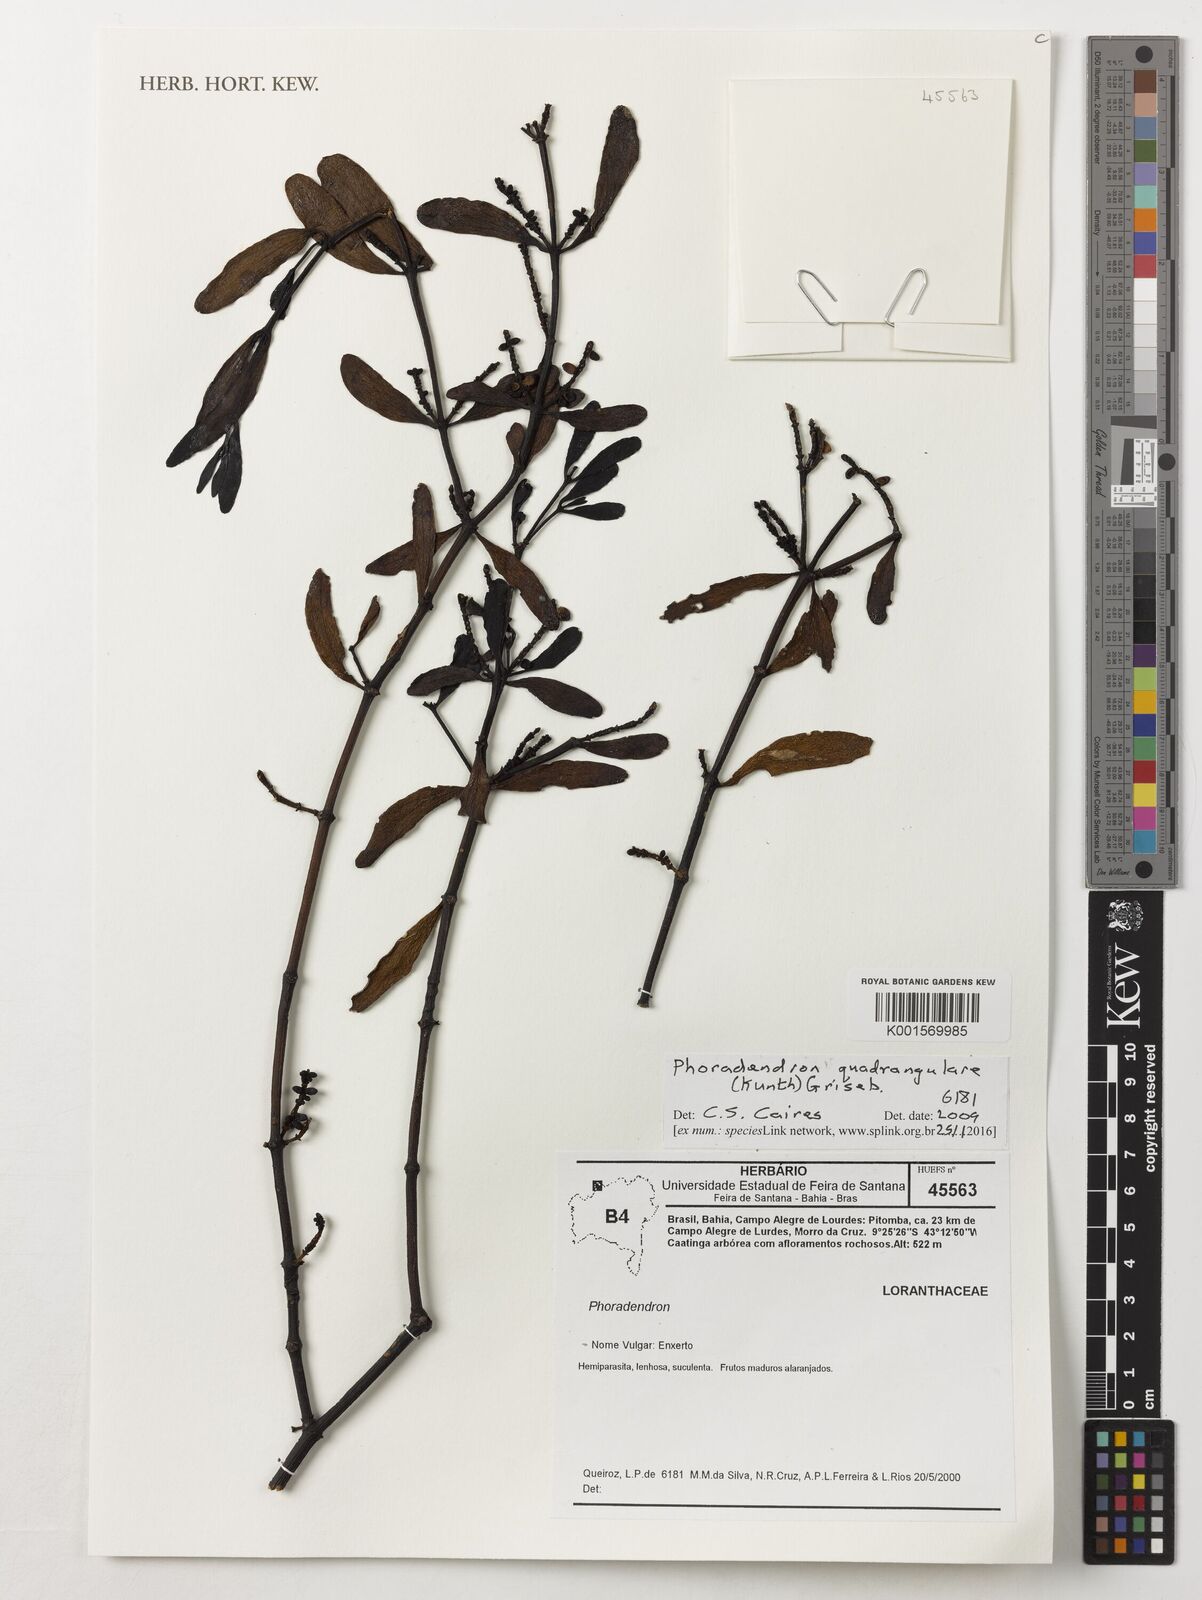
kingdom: Plantae
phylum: Tracheophyta
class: Magnoliopsida
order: Santalales
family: Viscaceae
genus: Phoradendron
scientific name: Phoradendron quadrangulare
